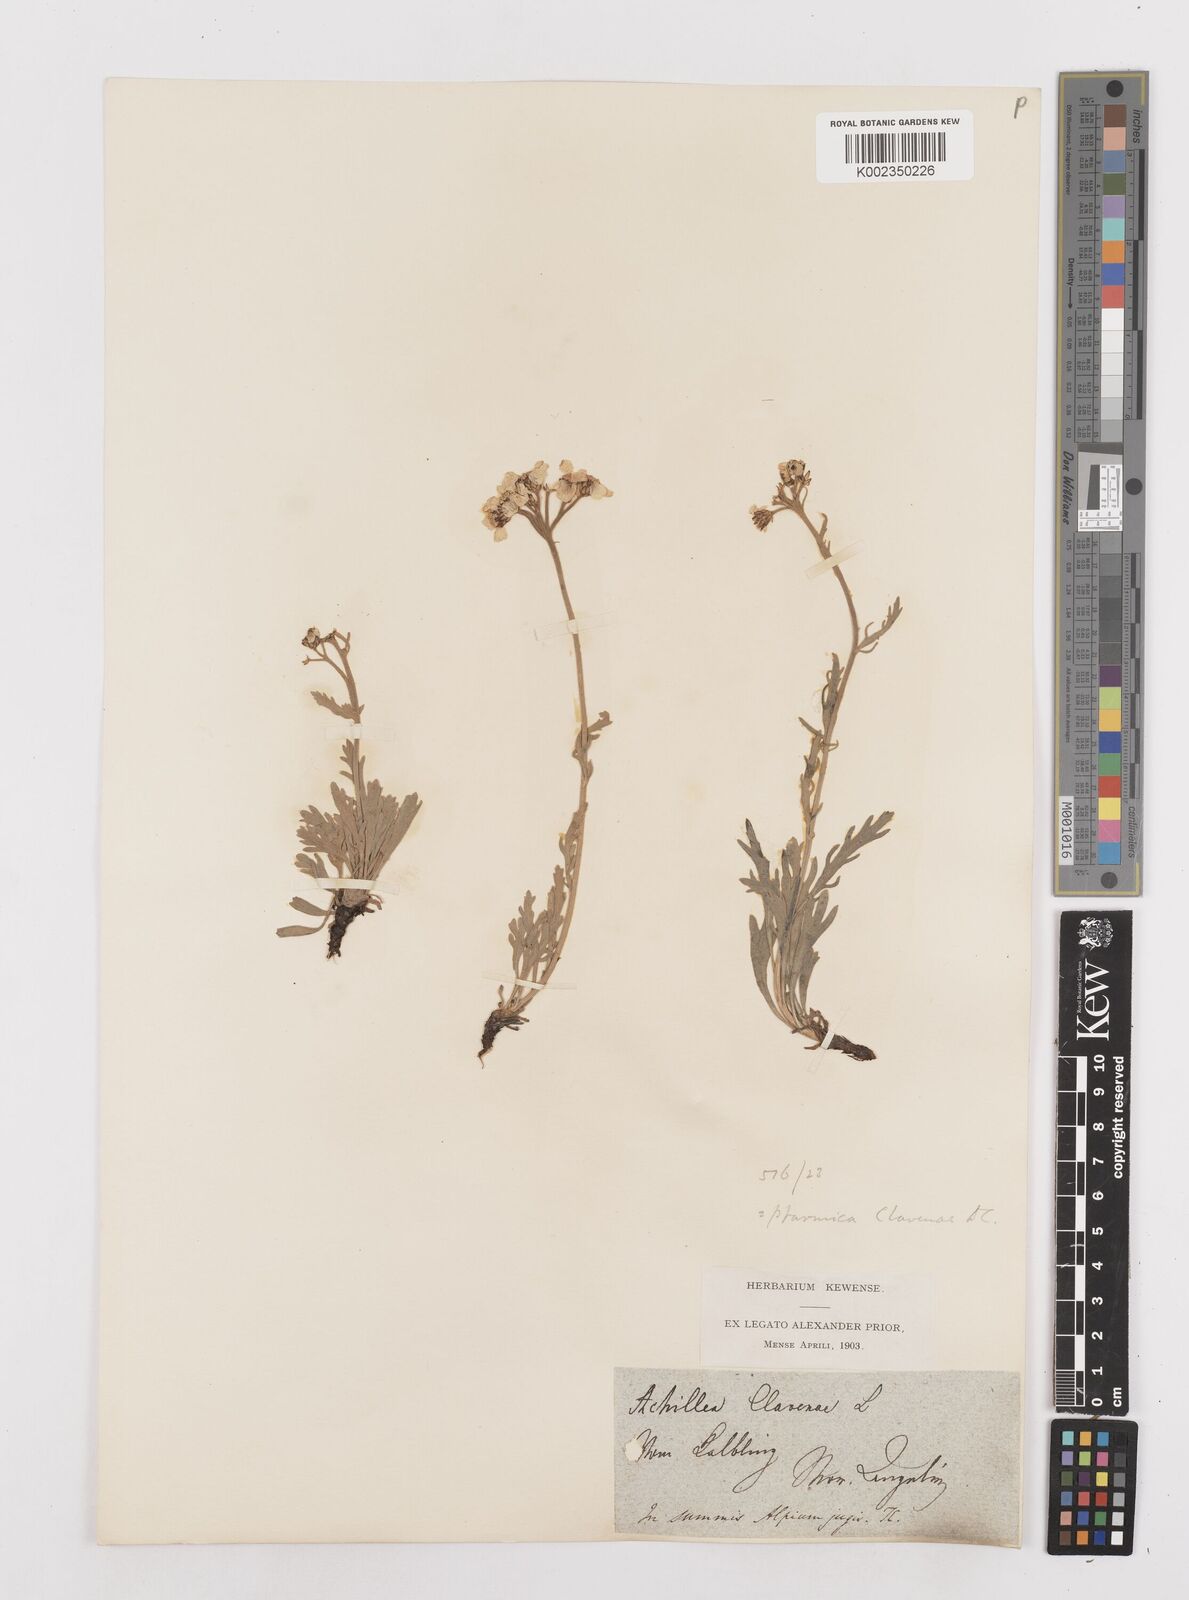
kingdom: Plantae
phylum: Tracheophyta
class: Magnoliopsida
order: Asterales
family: Asteraceae
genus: Achillea
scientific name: Achillea clavennae
